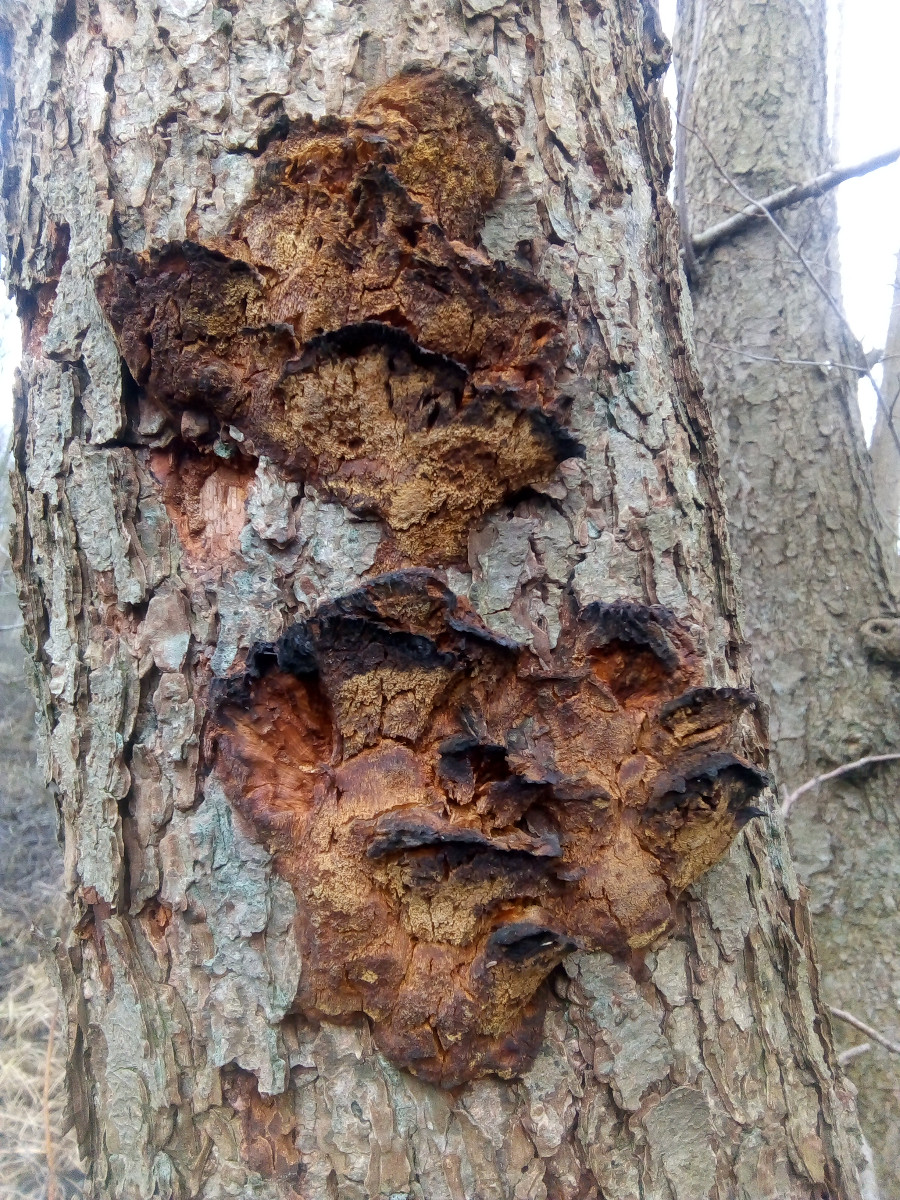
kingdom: Fungi
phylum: Basidiomycota
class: Agaricomycetes
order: Hymenochaetales
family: Hymenochaetaceae
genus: Xanthoporia
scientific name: Xanthoporia radiata
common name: elle-spejlporesvamp
